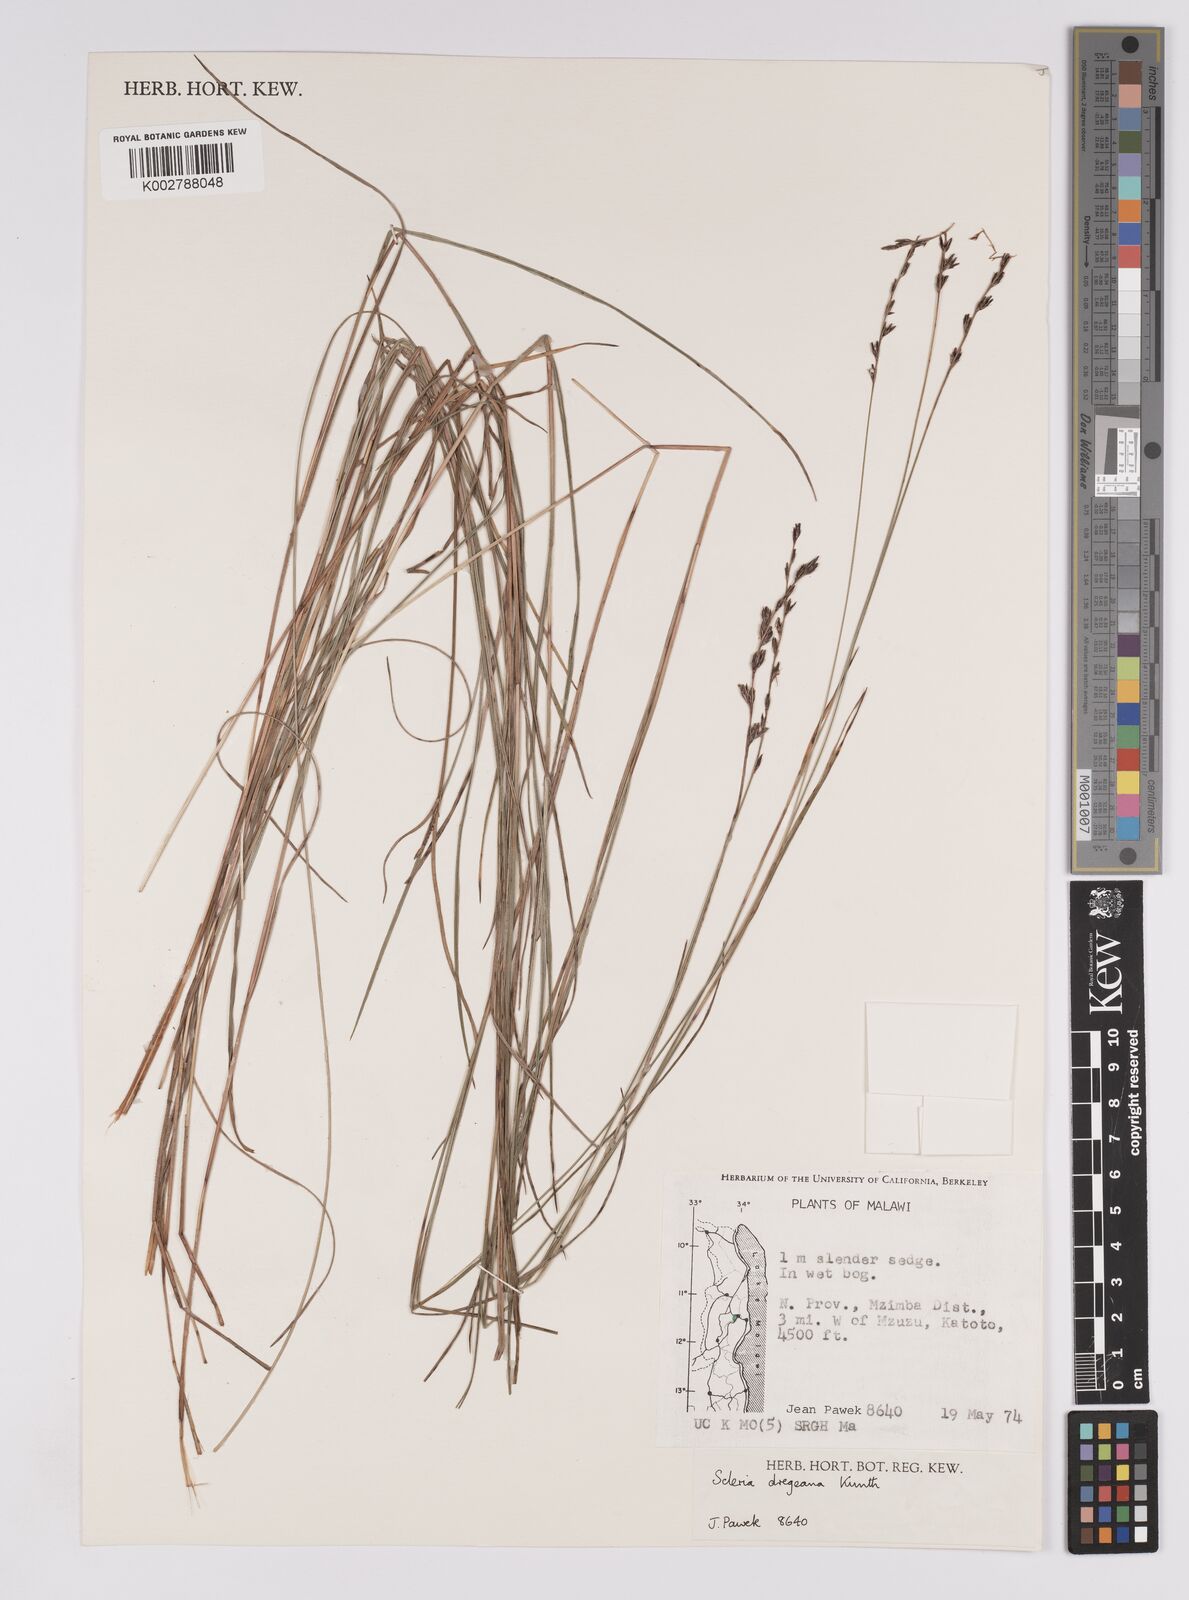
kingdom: Plantae
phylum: Tracheophyta
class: Liliopsida
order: Poales
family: Cyperaceae
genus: Scleria
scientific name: Scleria dregeana
